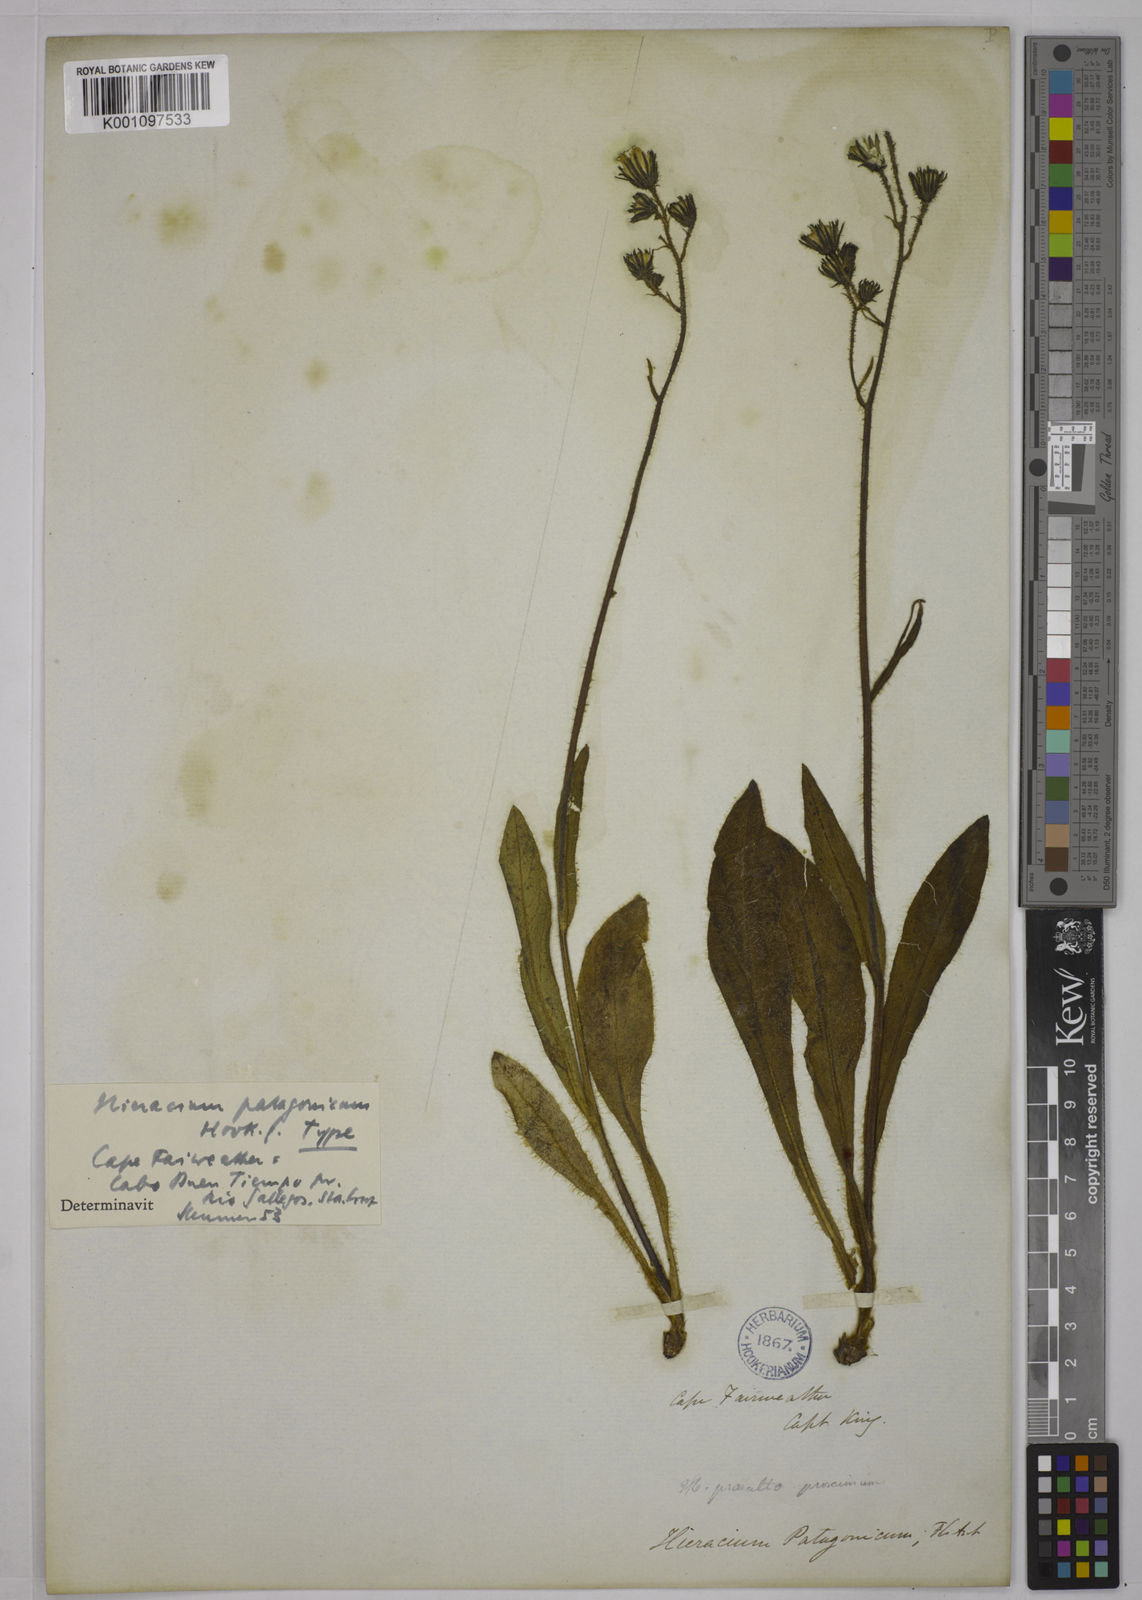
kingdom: Plantae
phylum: Tracheophyta
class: Magnoliopsida
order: Asterales
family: Asteraceae
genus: Hieracium
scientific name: Hieracium patagonicum
